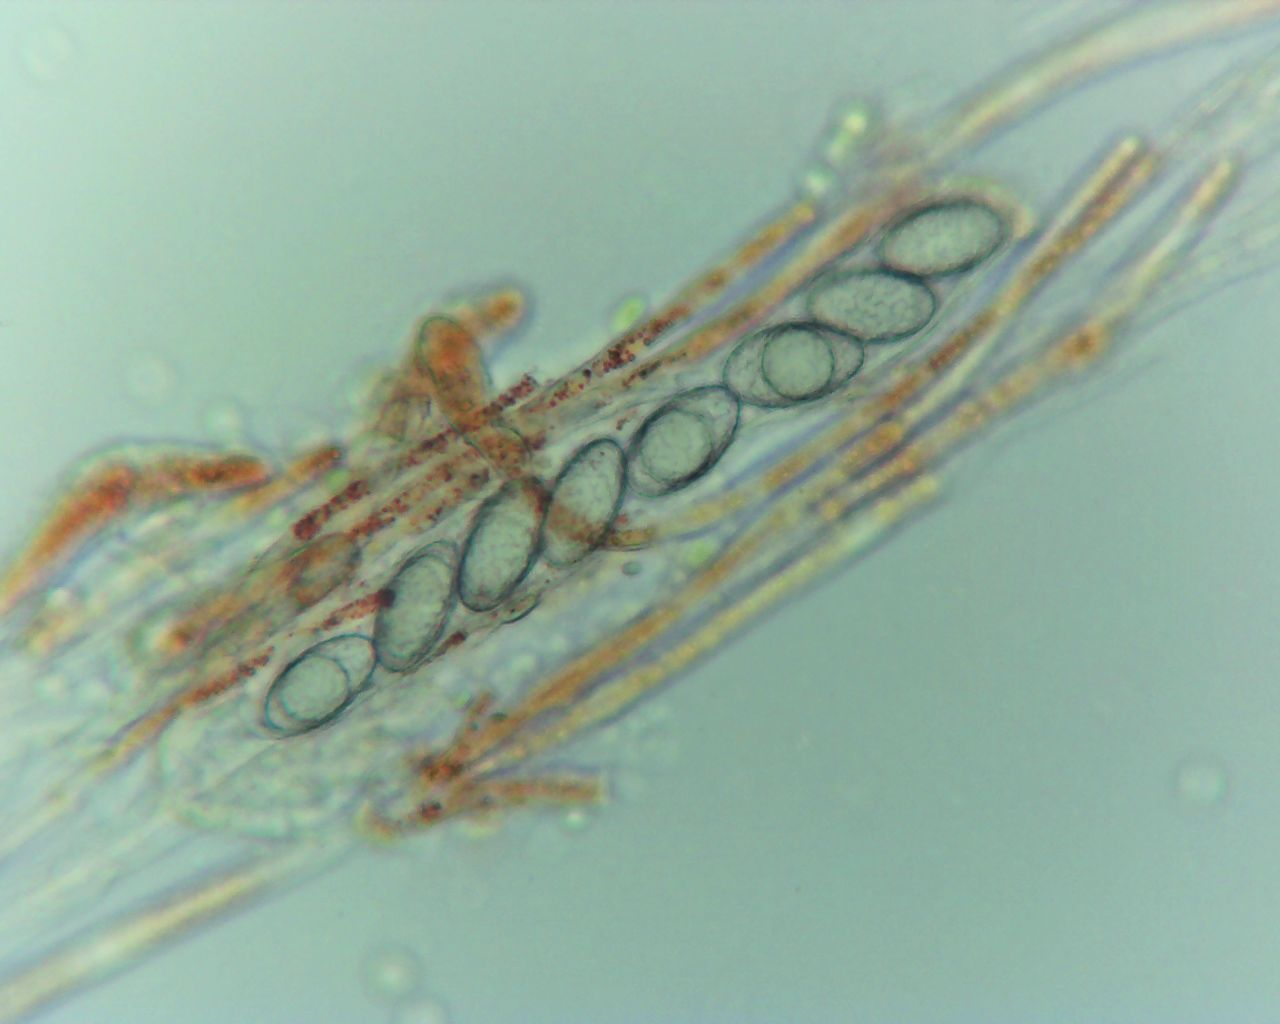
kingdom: Fungi
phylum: Ascomycota
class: Pezizomycetes
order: Pezizales
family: Pyronemataceae
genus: Neottiella
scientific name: Neottiella rutilans
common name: jomfruhår-mosbæger
